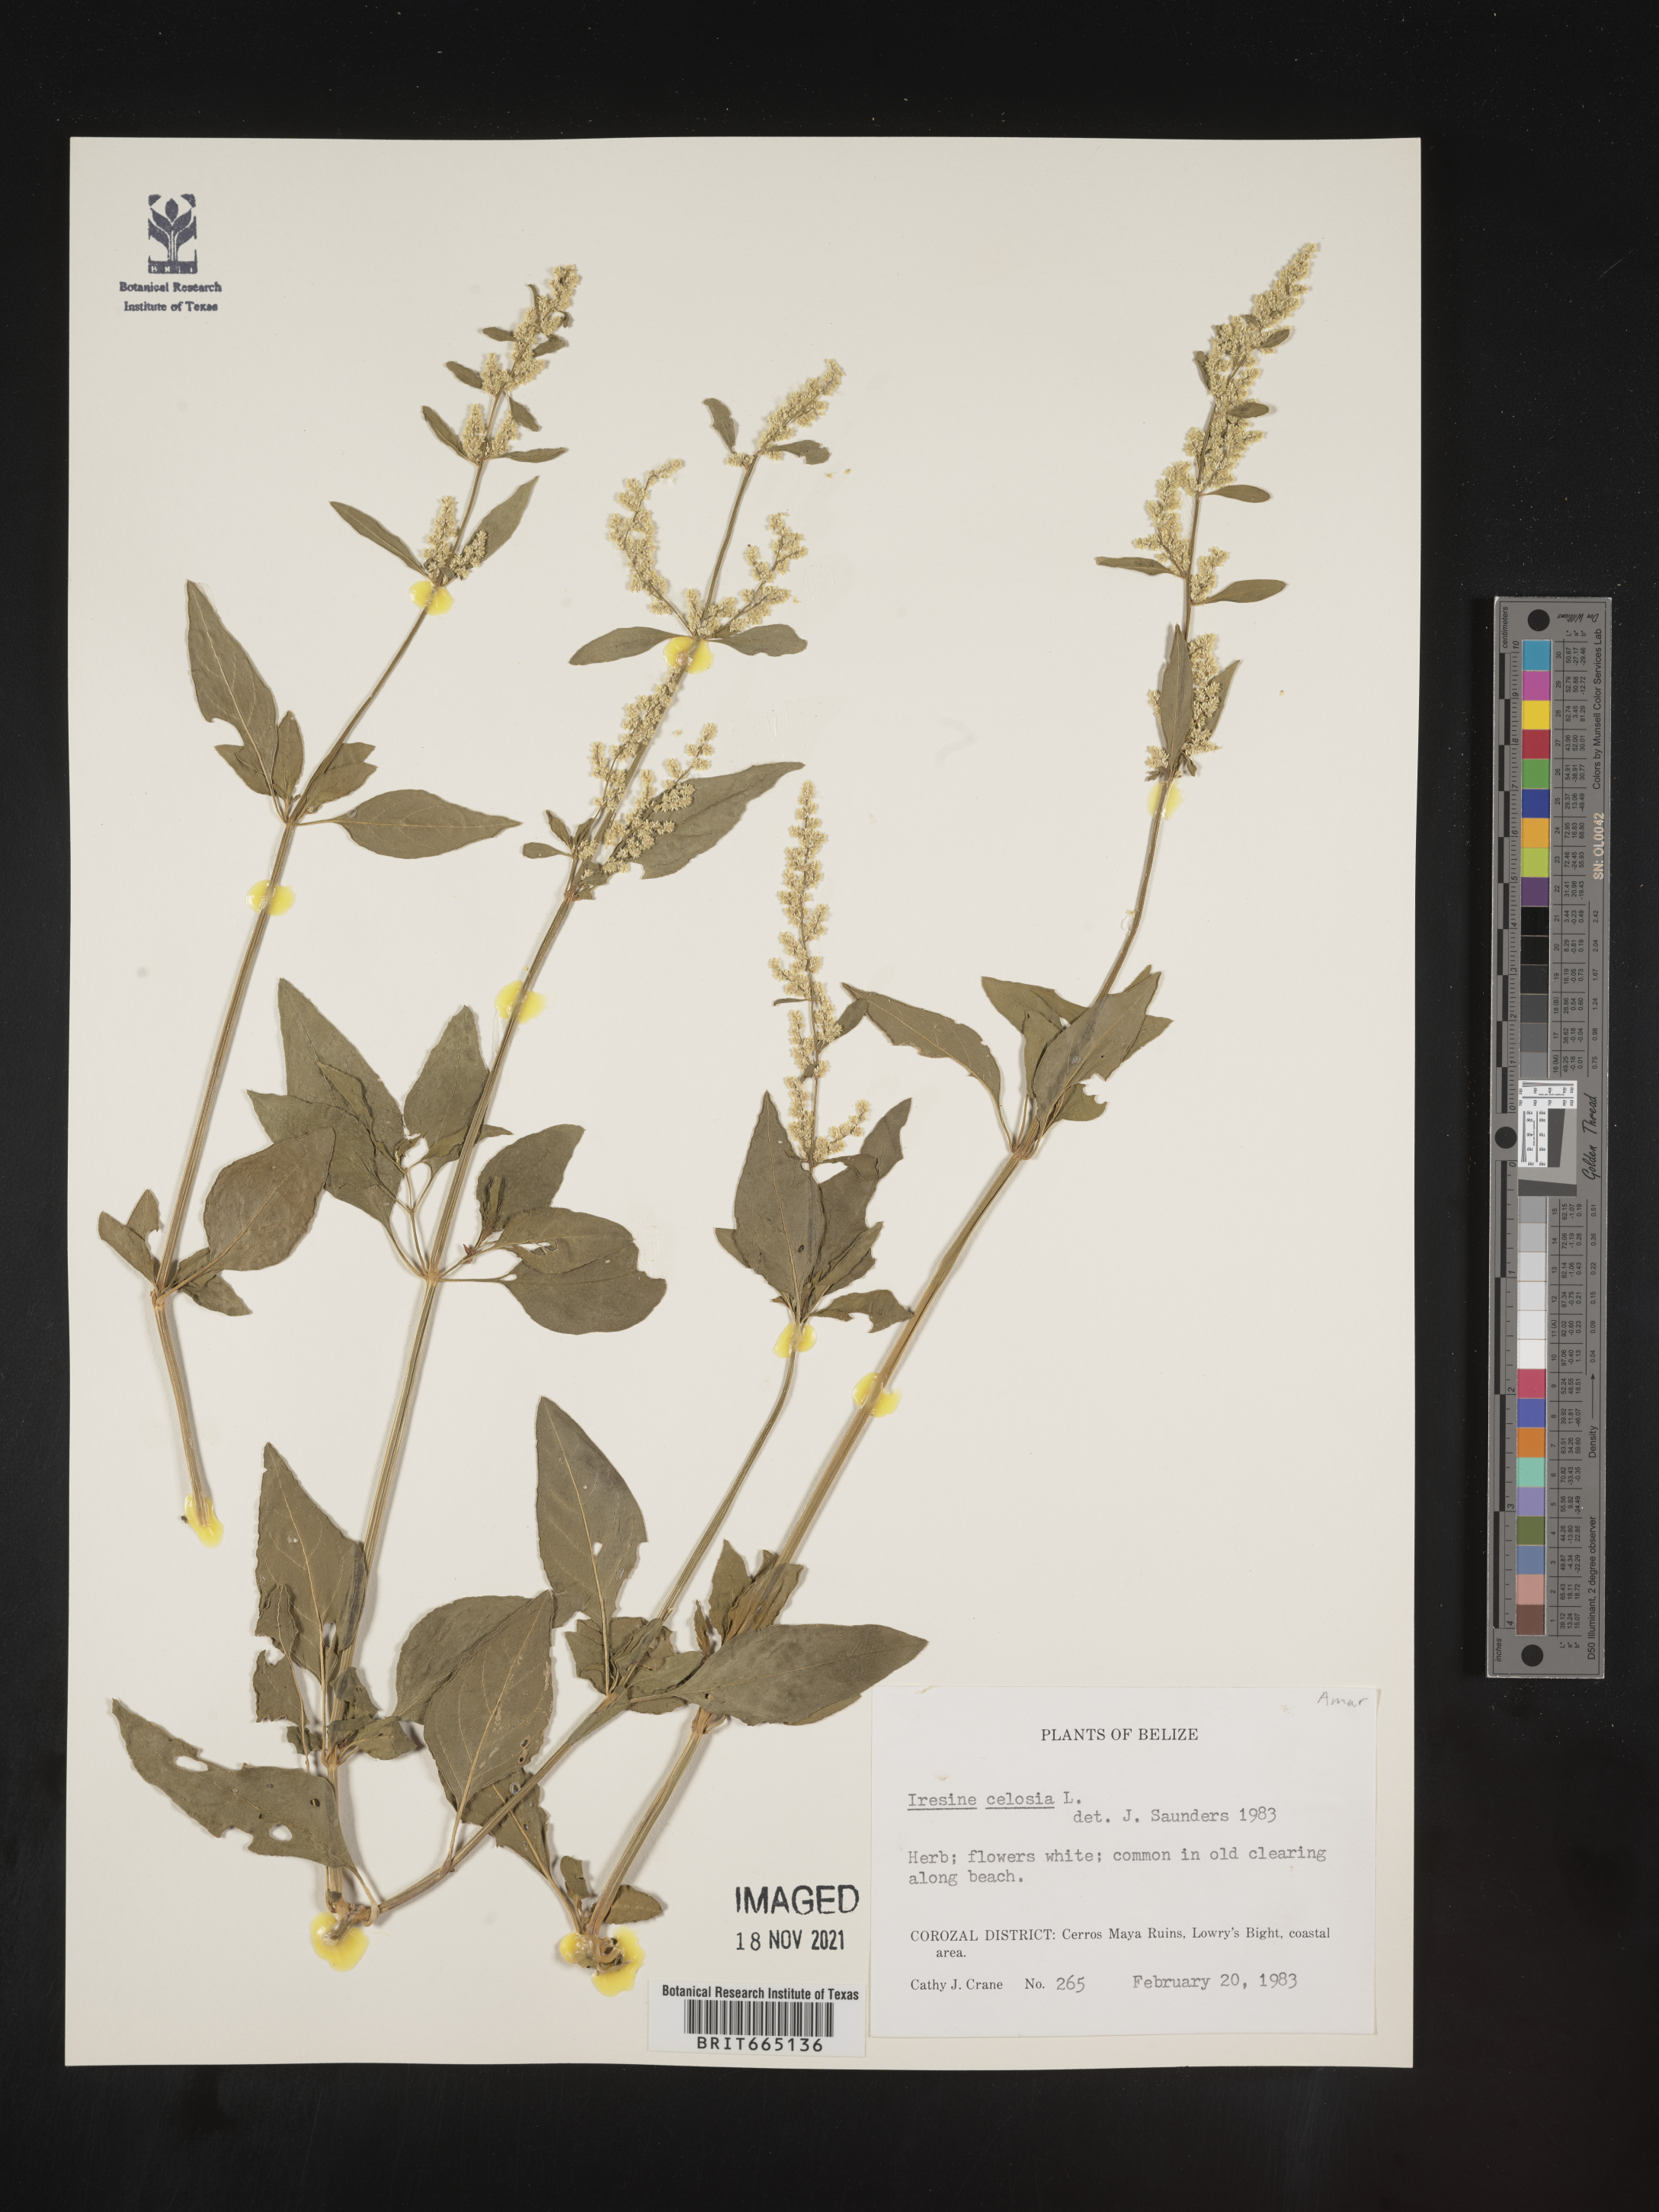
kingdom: Plantae
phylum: Tracheophyta
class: Magnoliopsida
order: Caryophyllales
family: Amaranthaceae
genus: Iresine
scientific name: Iresine
